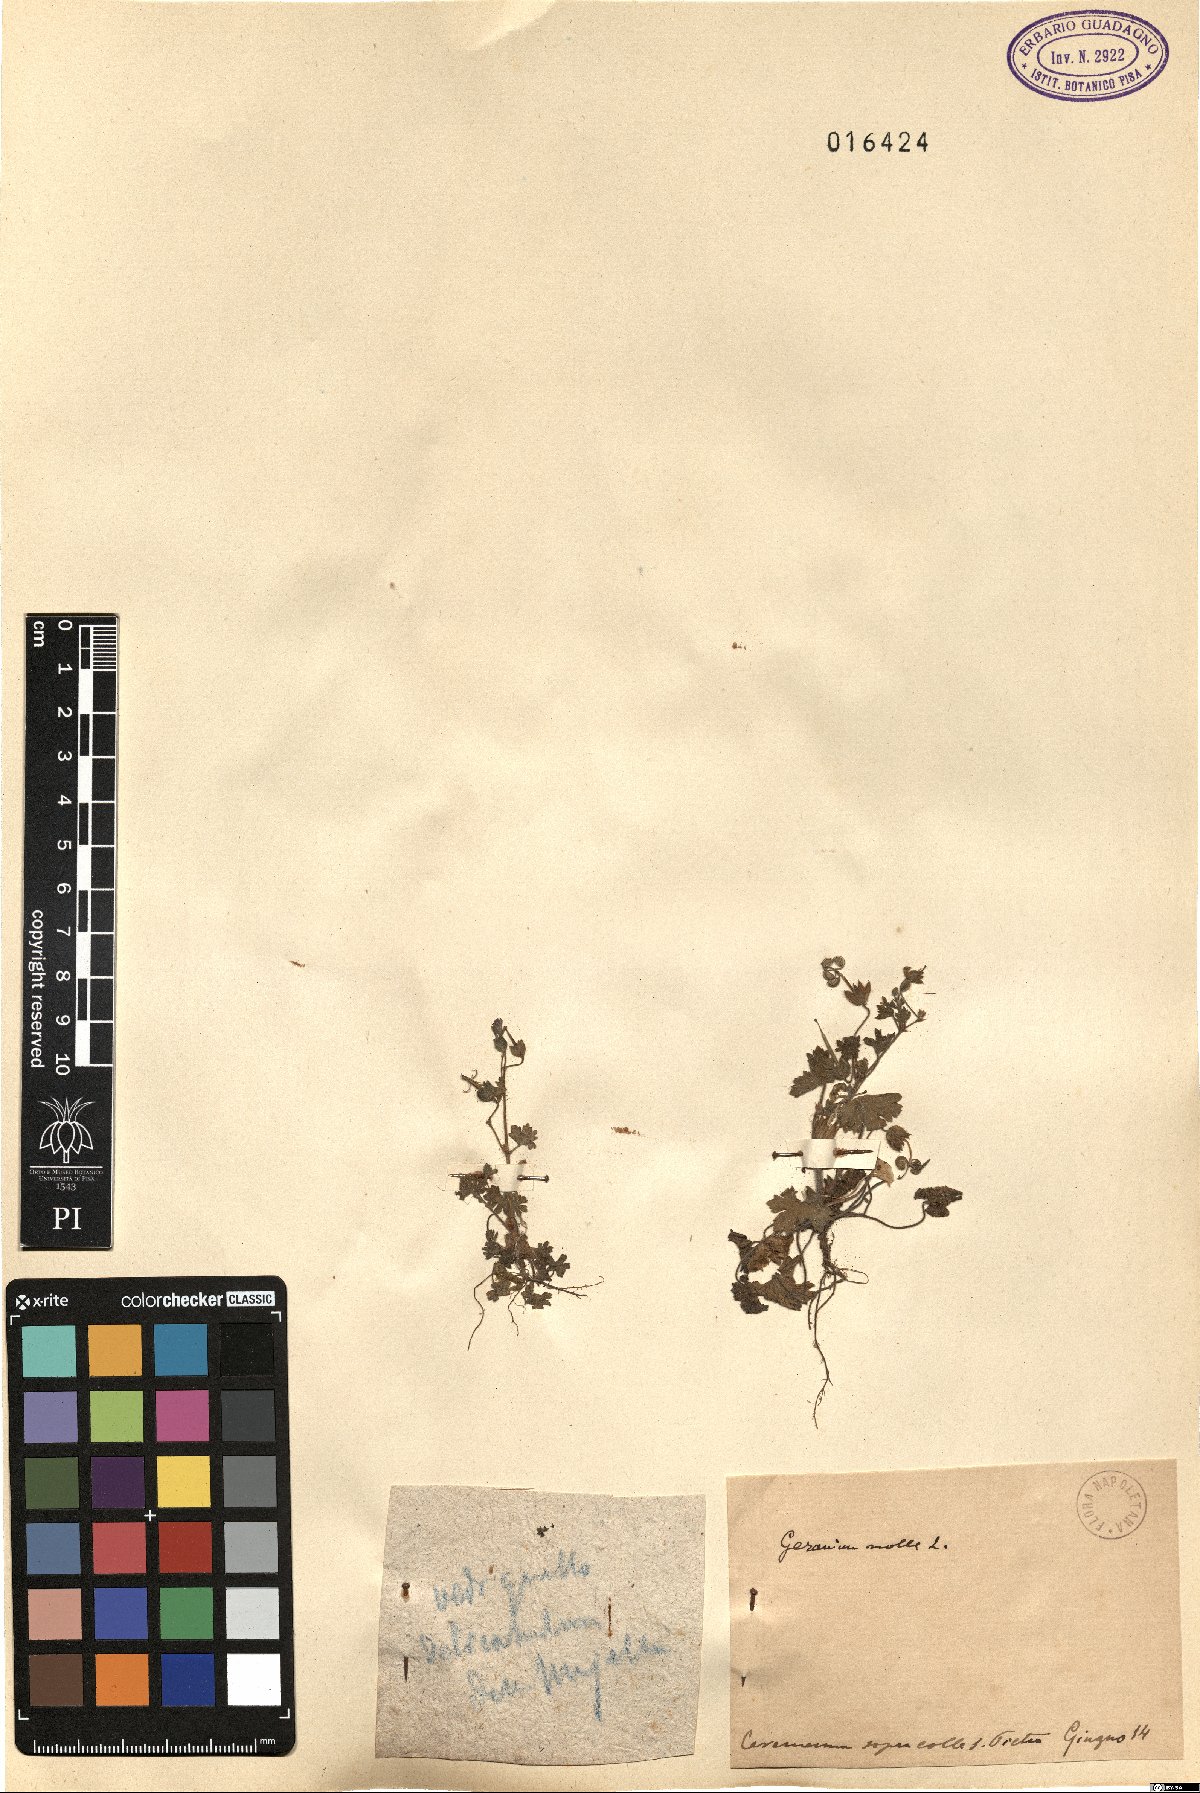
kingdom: Plantae
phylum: Tracheophyta
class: Magnoliopsida
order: Geraniales
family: Geraniaceae
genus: Geranium
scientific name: Geranium molle
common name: Dove's-foot crane's-bill
